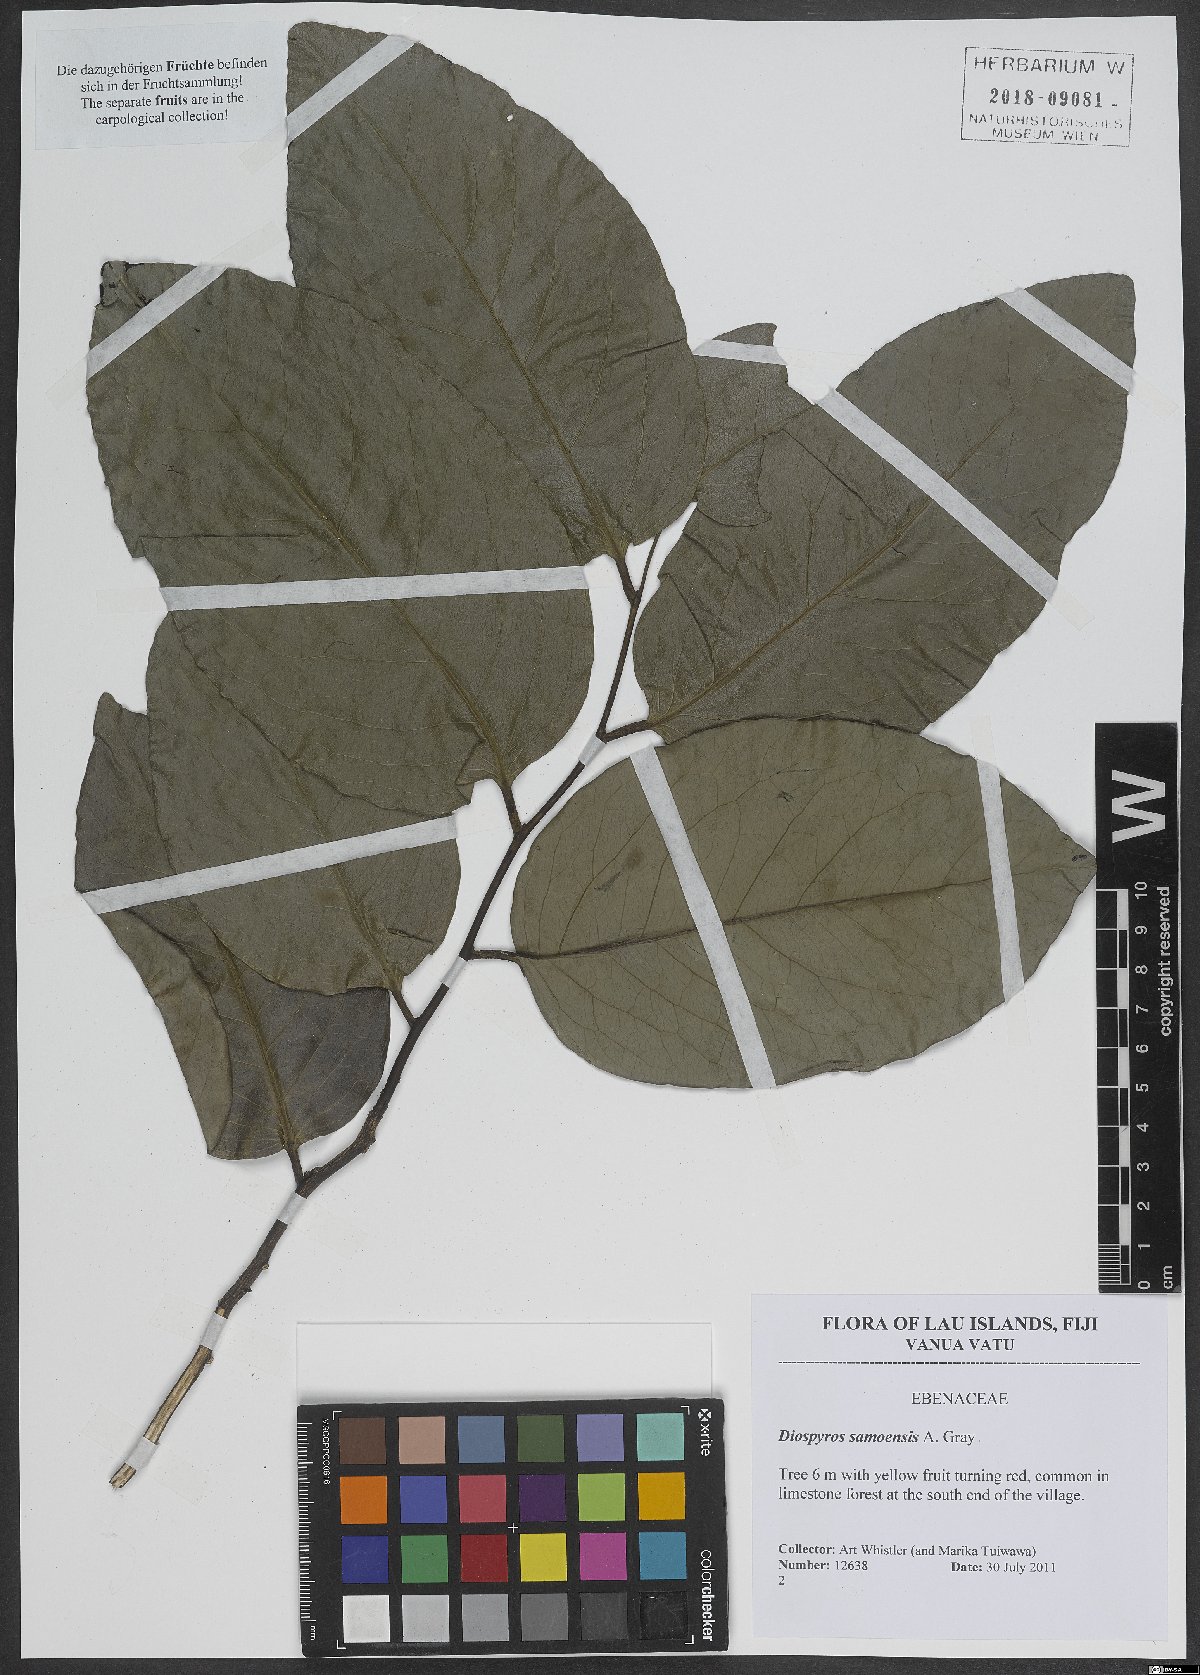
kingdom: Plantae
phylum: Tracheophyta
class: Magnoliopsida
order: Ericales
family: Ebenaceae
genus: Diospyros
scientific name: Diospyros samoensis
